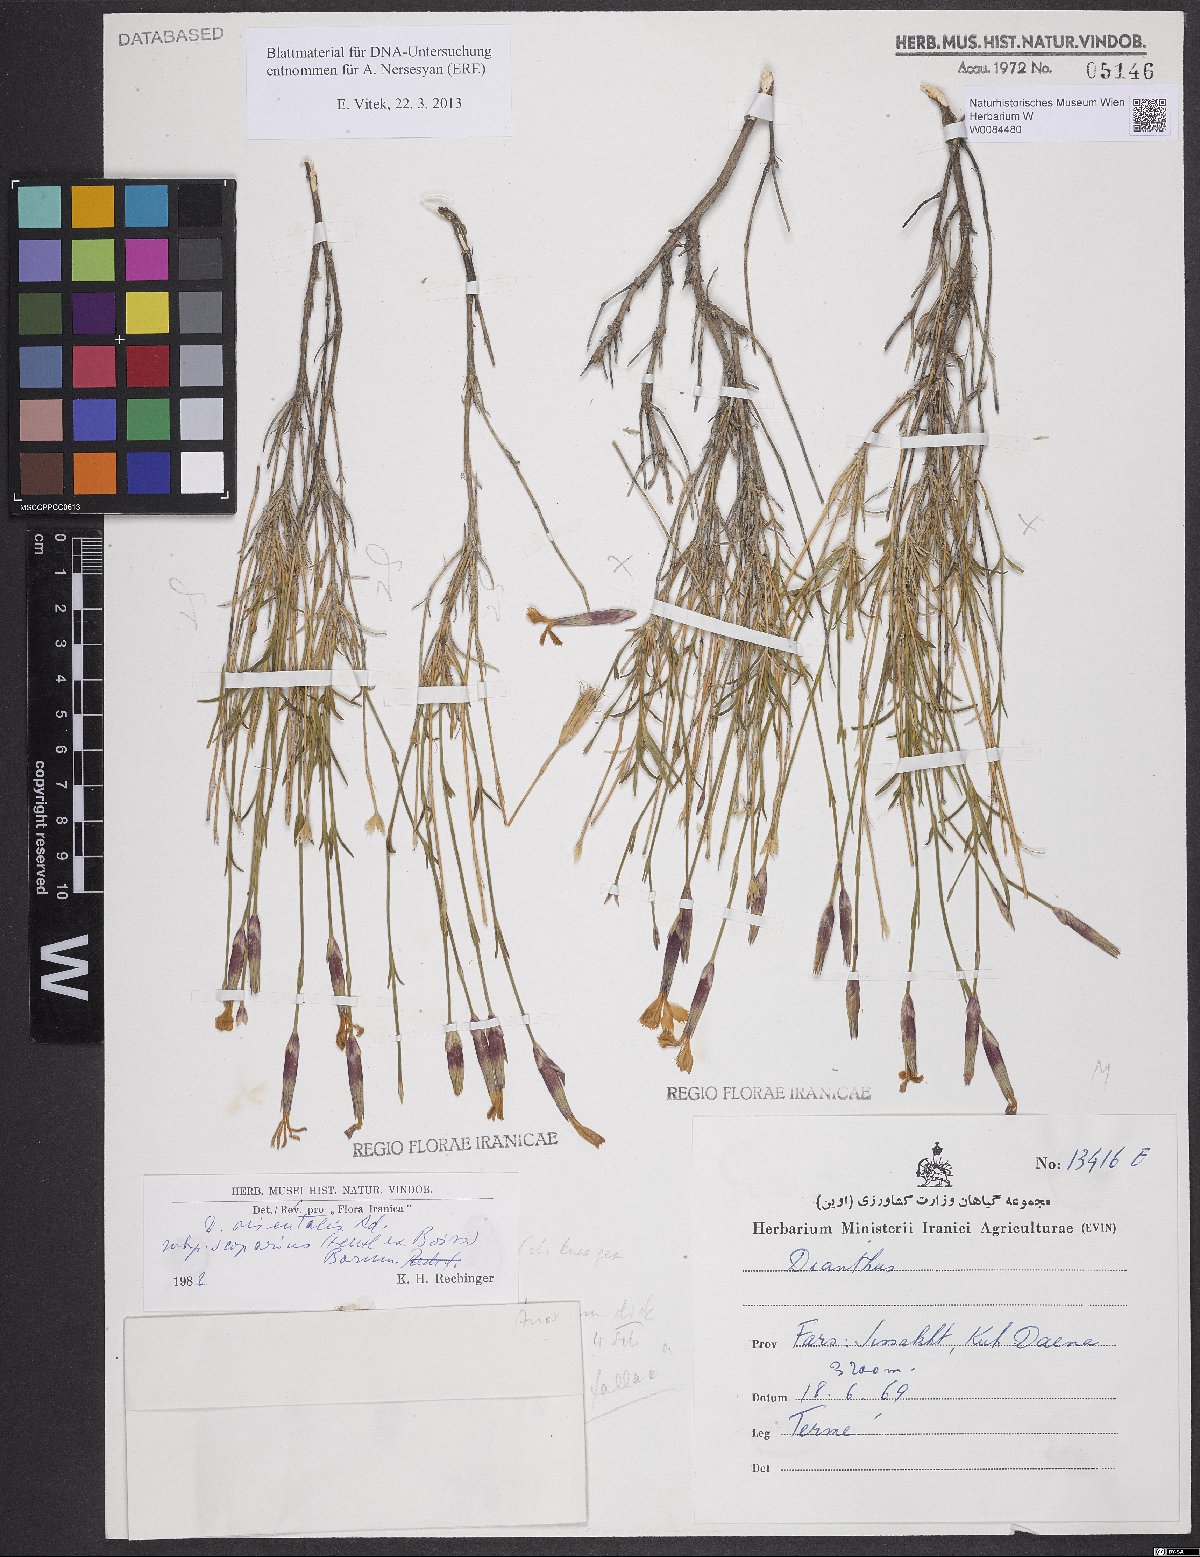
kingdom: Plantae
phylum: Tracheophyta
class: Magnoliopsida
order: Caryophyllales
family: Caryophyllaceae
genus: Dianthus
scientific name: Dianthus orientalis
